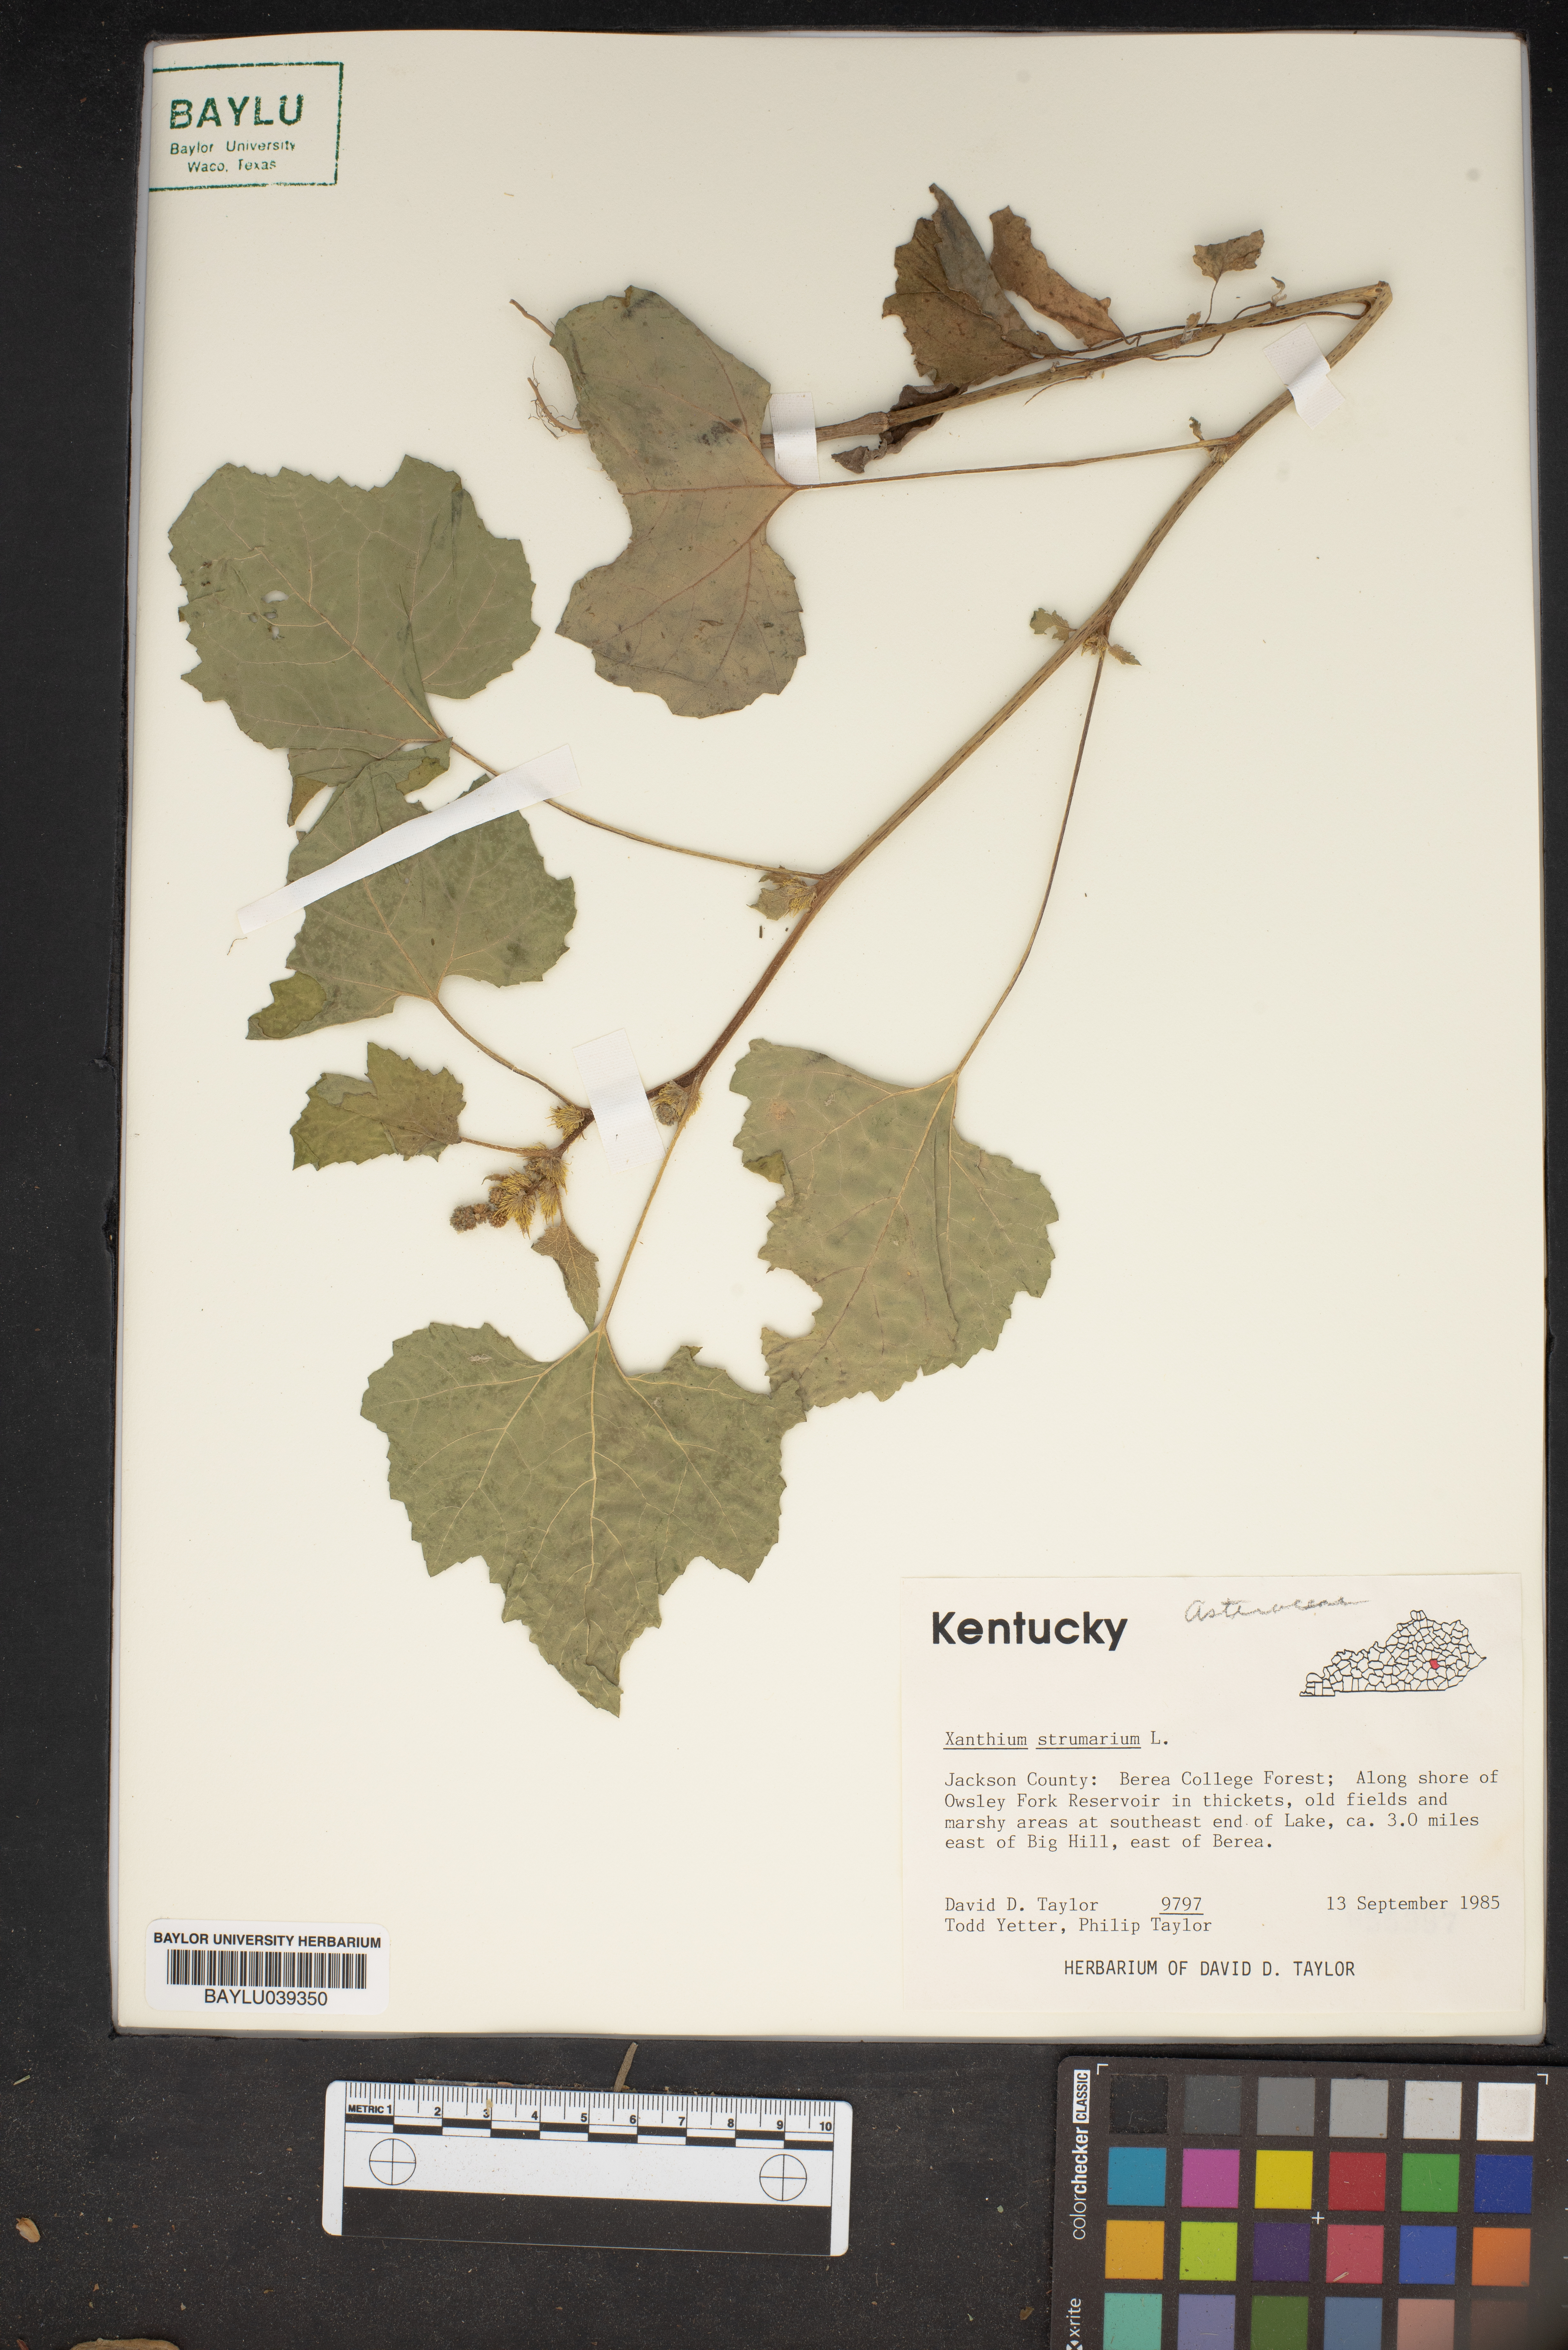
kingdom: Plantae
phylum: Tracheophyta
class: Magnoliopsida
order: Asterales
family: Asteraceae
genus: Xanthium
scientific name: Xanthium strumarium
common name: Rough cocklebur
